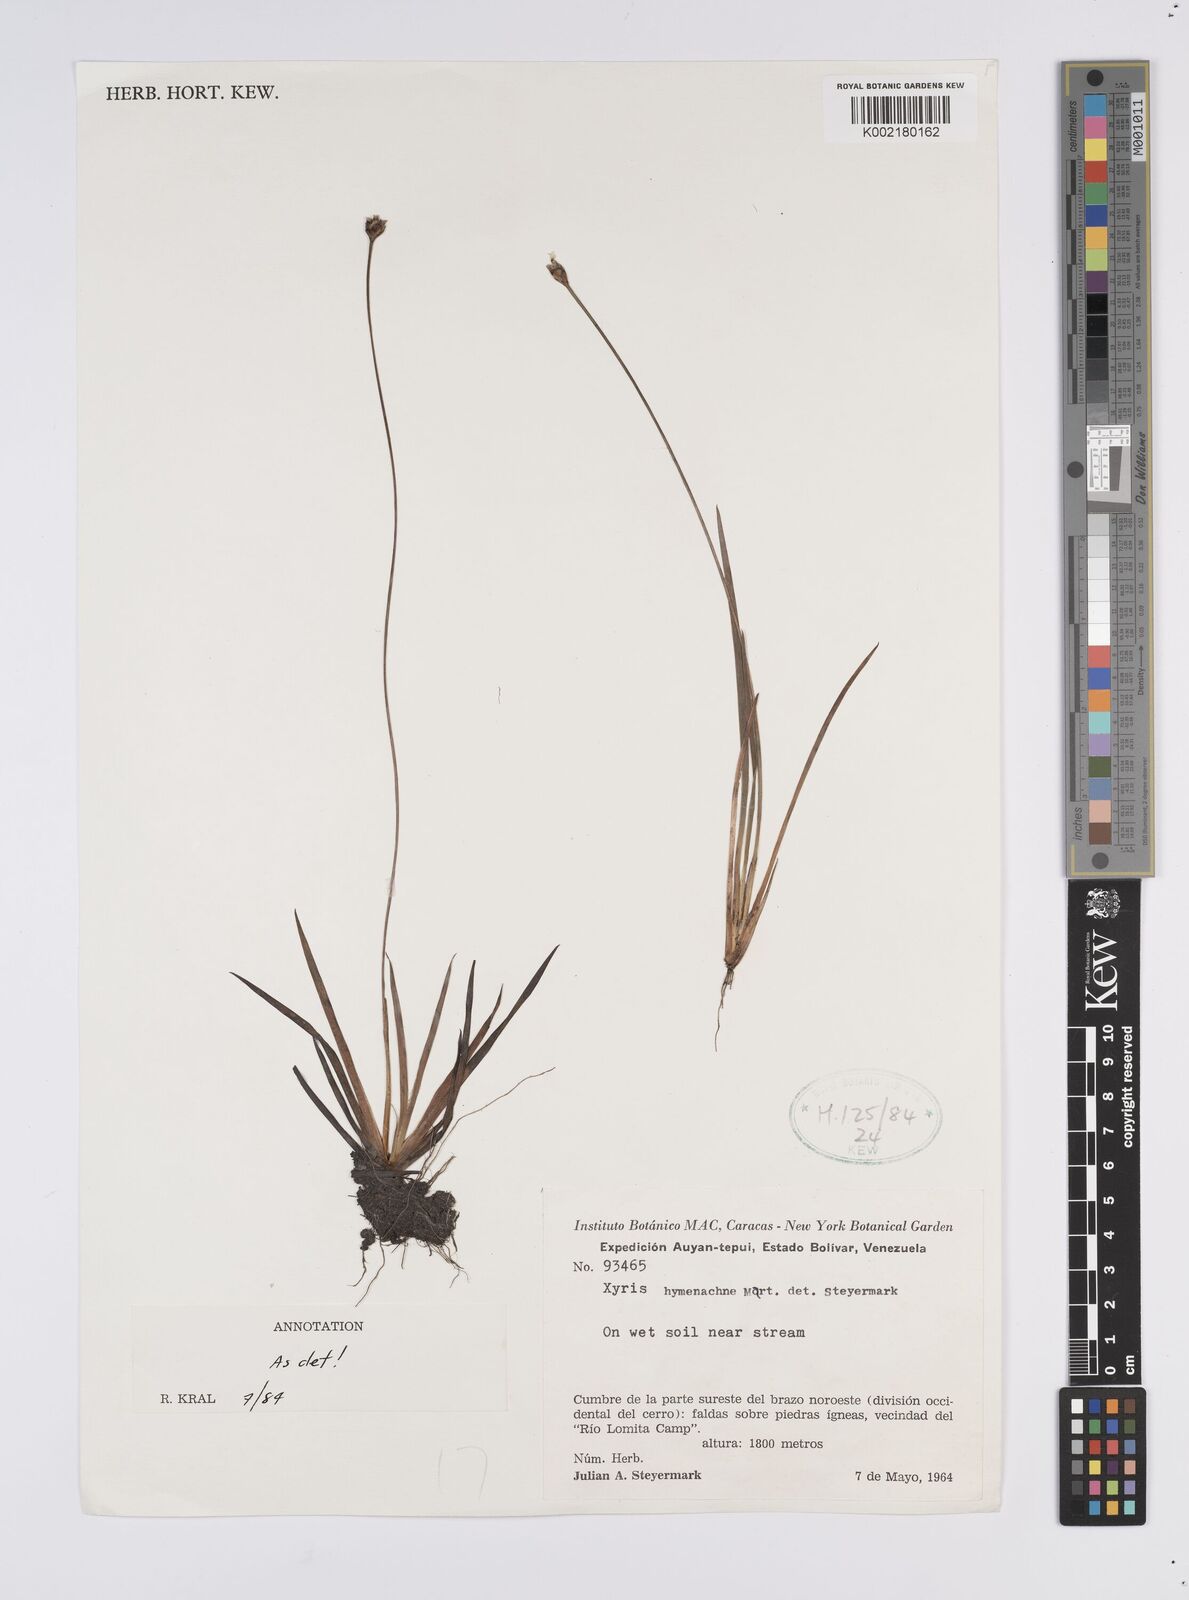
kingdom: Plantae
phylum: Tracheophyta
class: Liliopsida
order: Poales
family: Xyridaceae
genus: Xyris
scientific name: Xyris hymenachne
